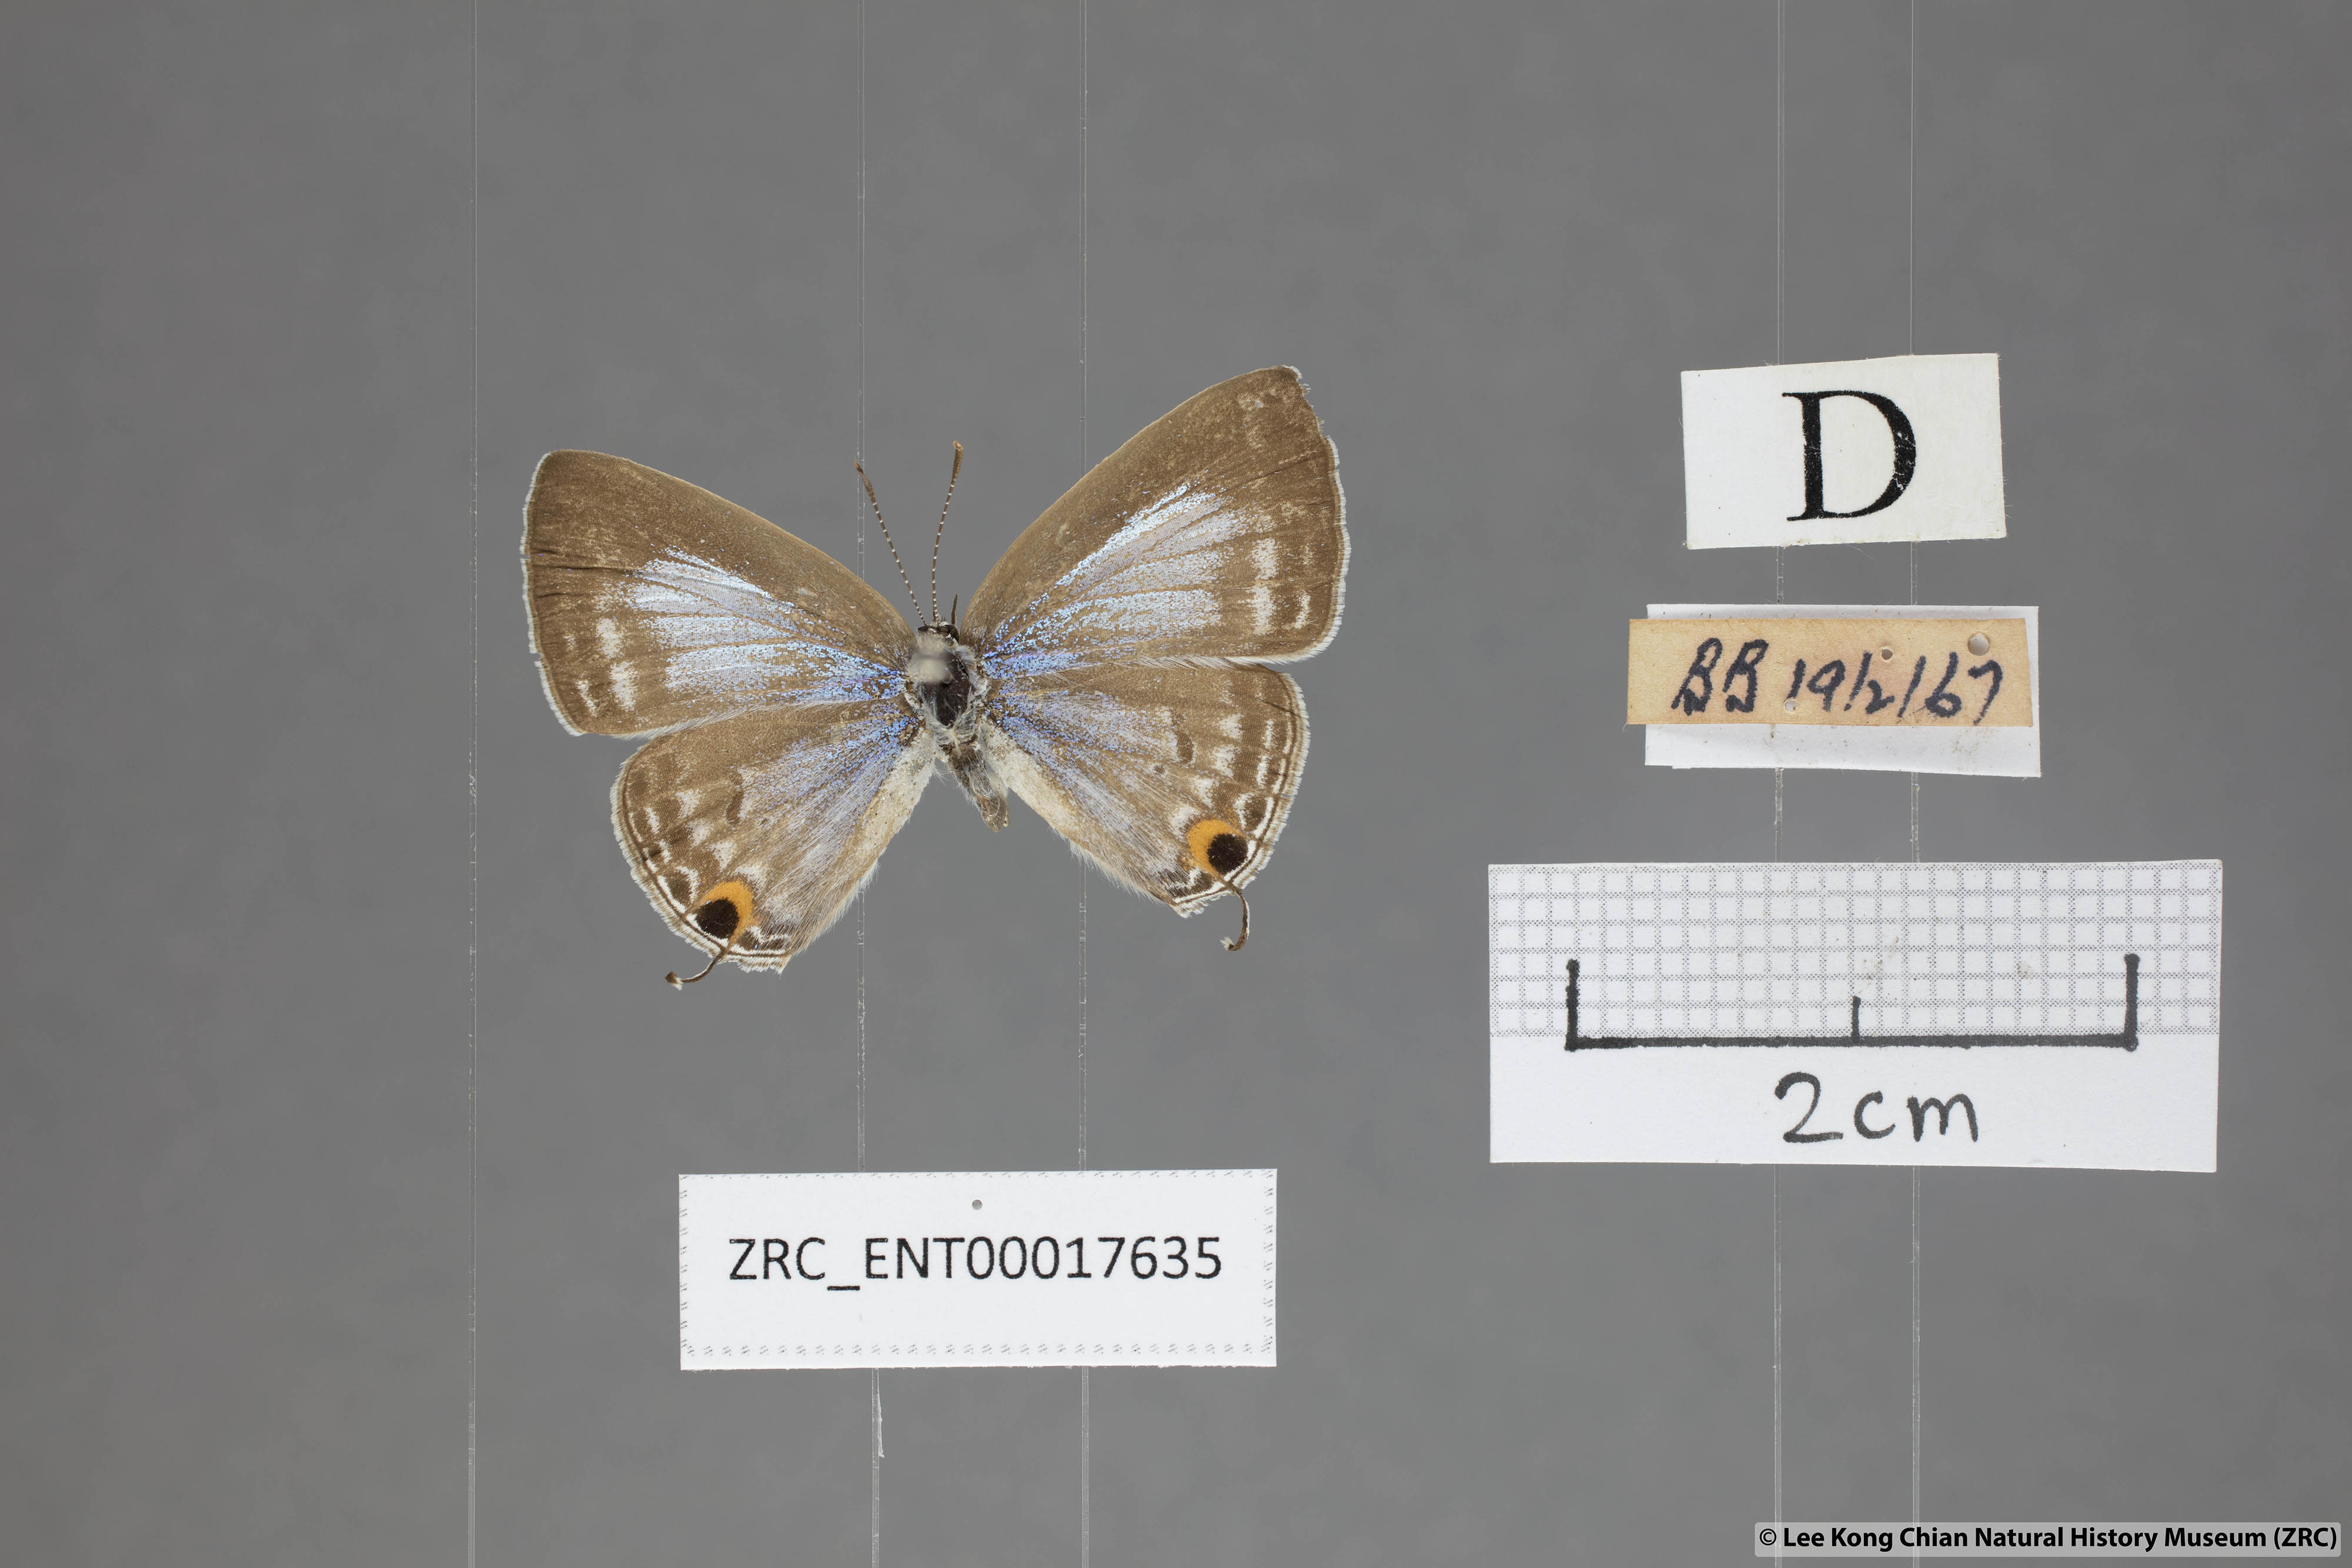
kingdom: Animalia
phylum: Arthropoda
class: Insecta
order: Lepidoptera
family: Lycaenidae
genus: Catochrysops
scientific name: Catochrysops strabo
